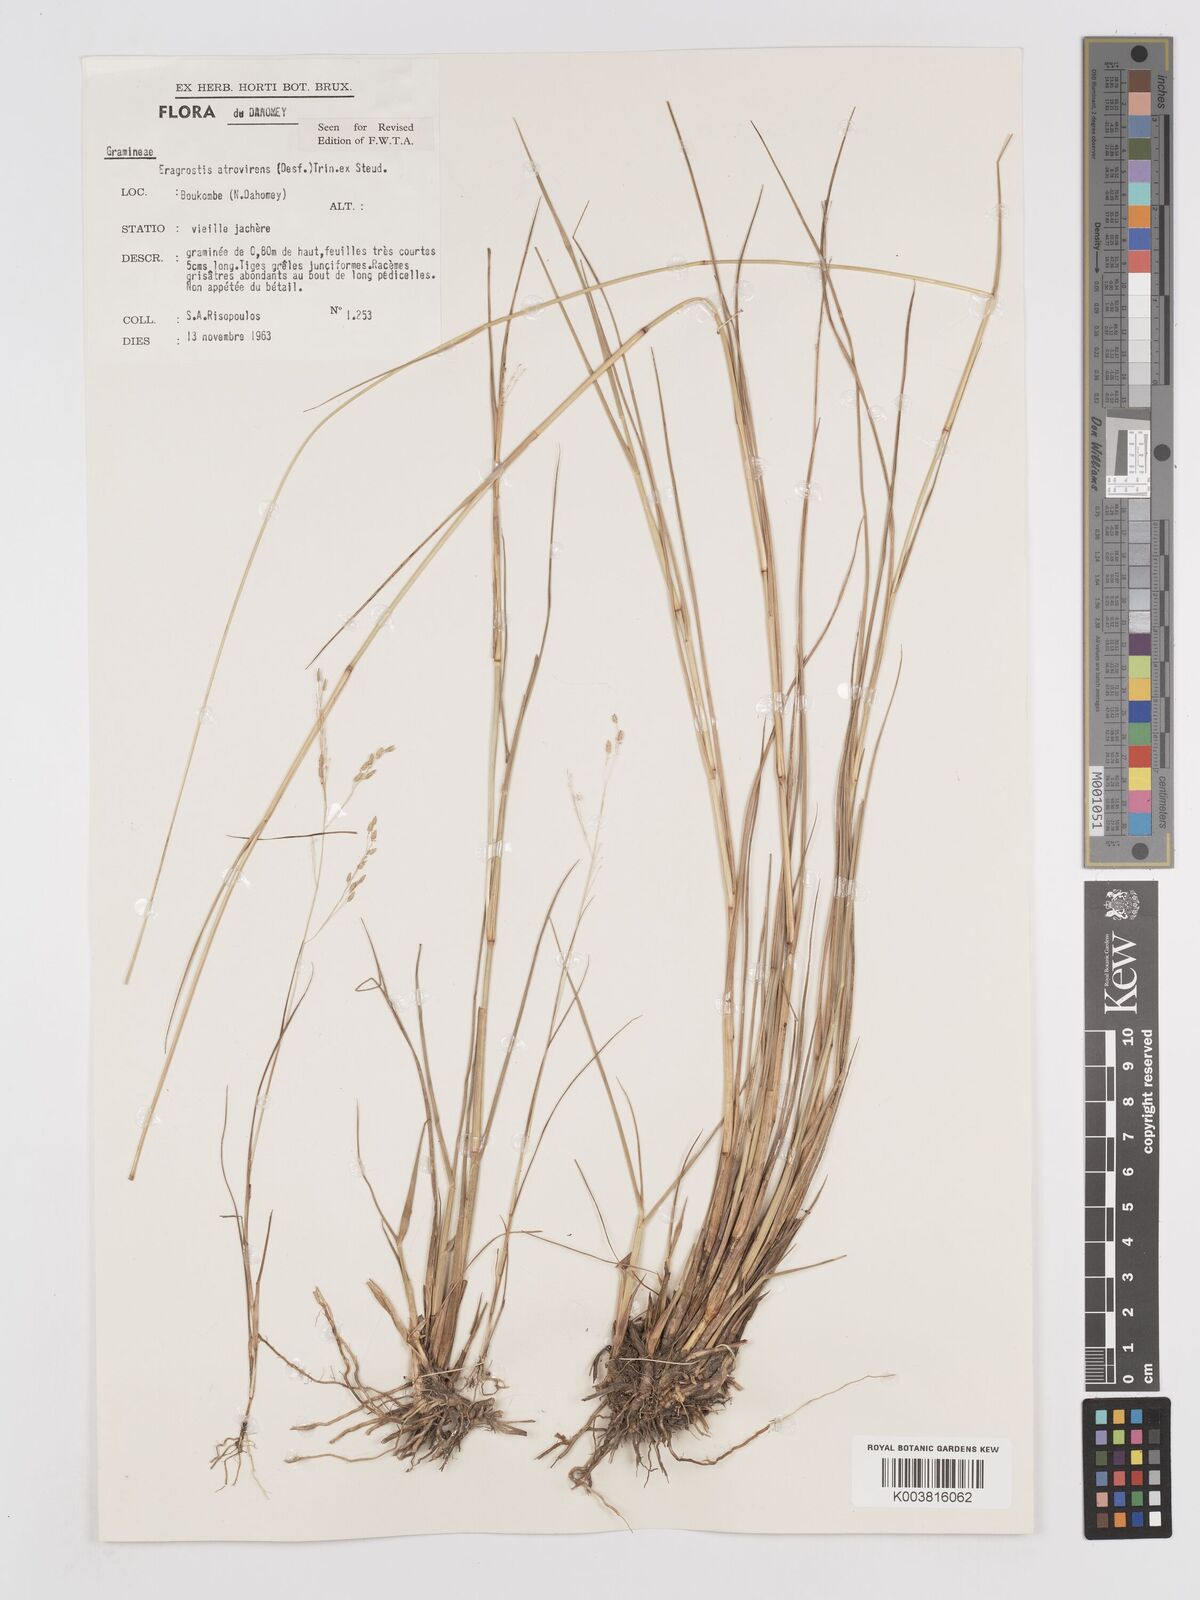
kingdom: Plantae
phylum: Tracheophyta
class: Liliopsida
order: Poales
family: Poaceae
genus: Eragrostis
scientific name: Eragrostis atrovirens
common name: Thalia lovegrass
